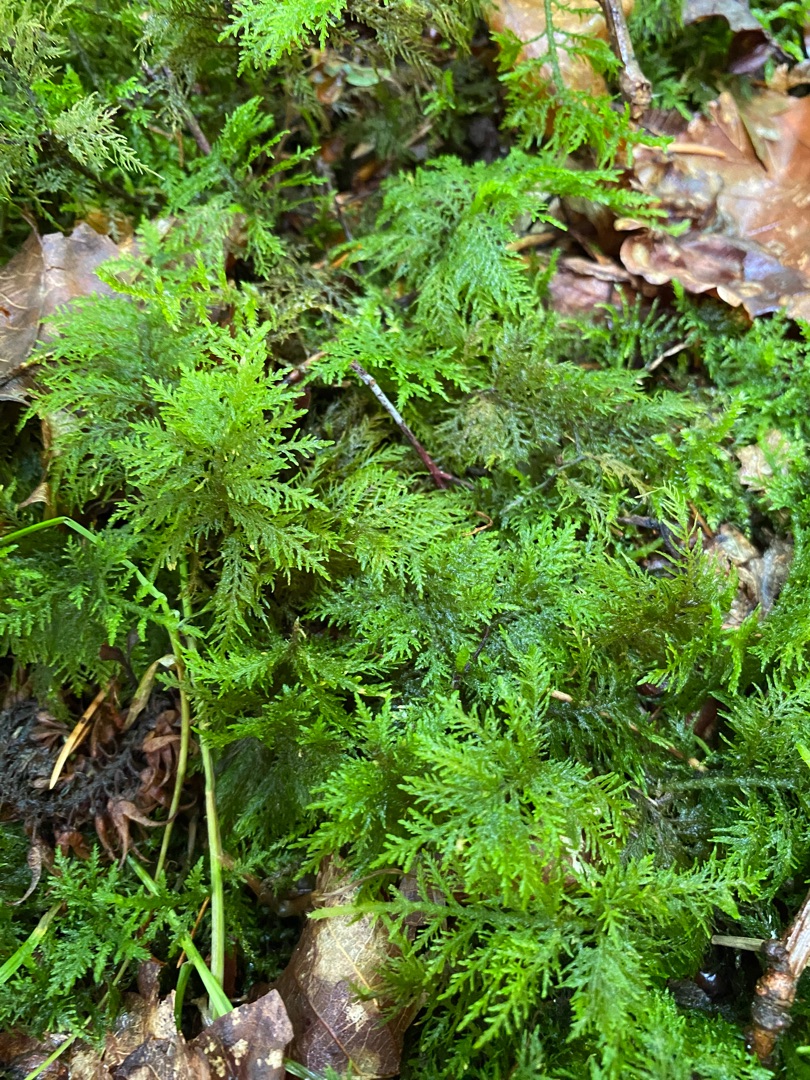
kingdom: Plantae
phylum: Bryophyta
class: Bryopsida
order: Hypnales
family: Thuidiaceae
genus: Thuidium
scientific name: Thuidium tamariscinum
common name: Pryd-bregnemos
